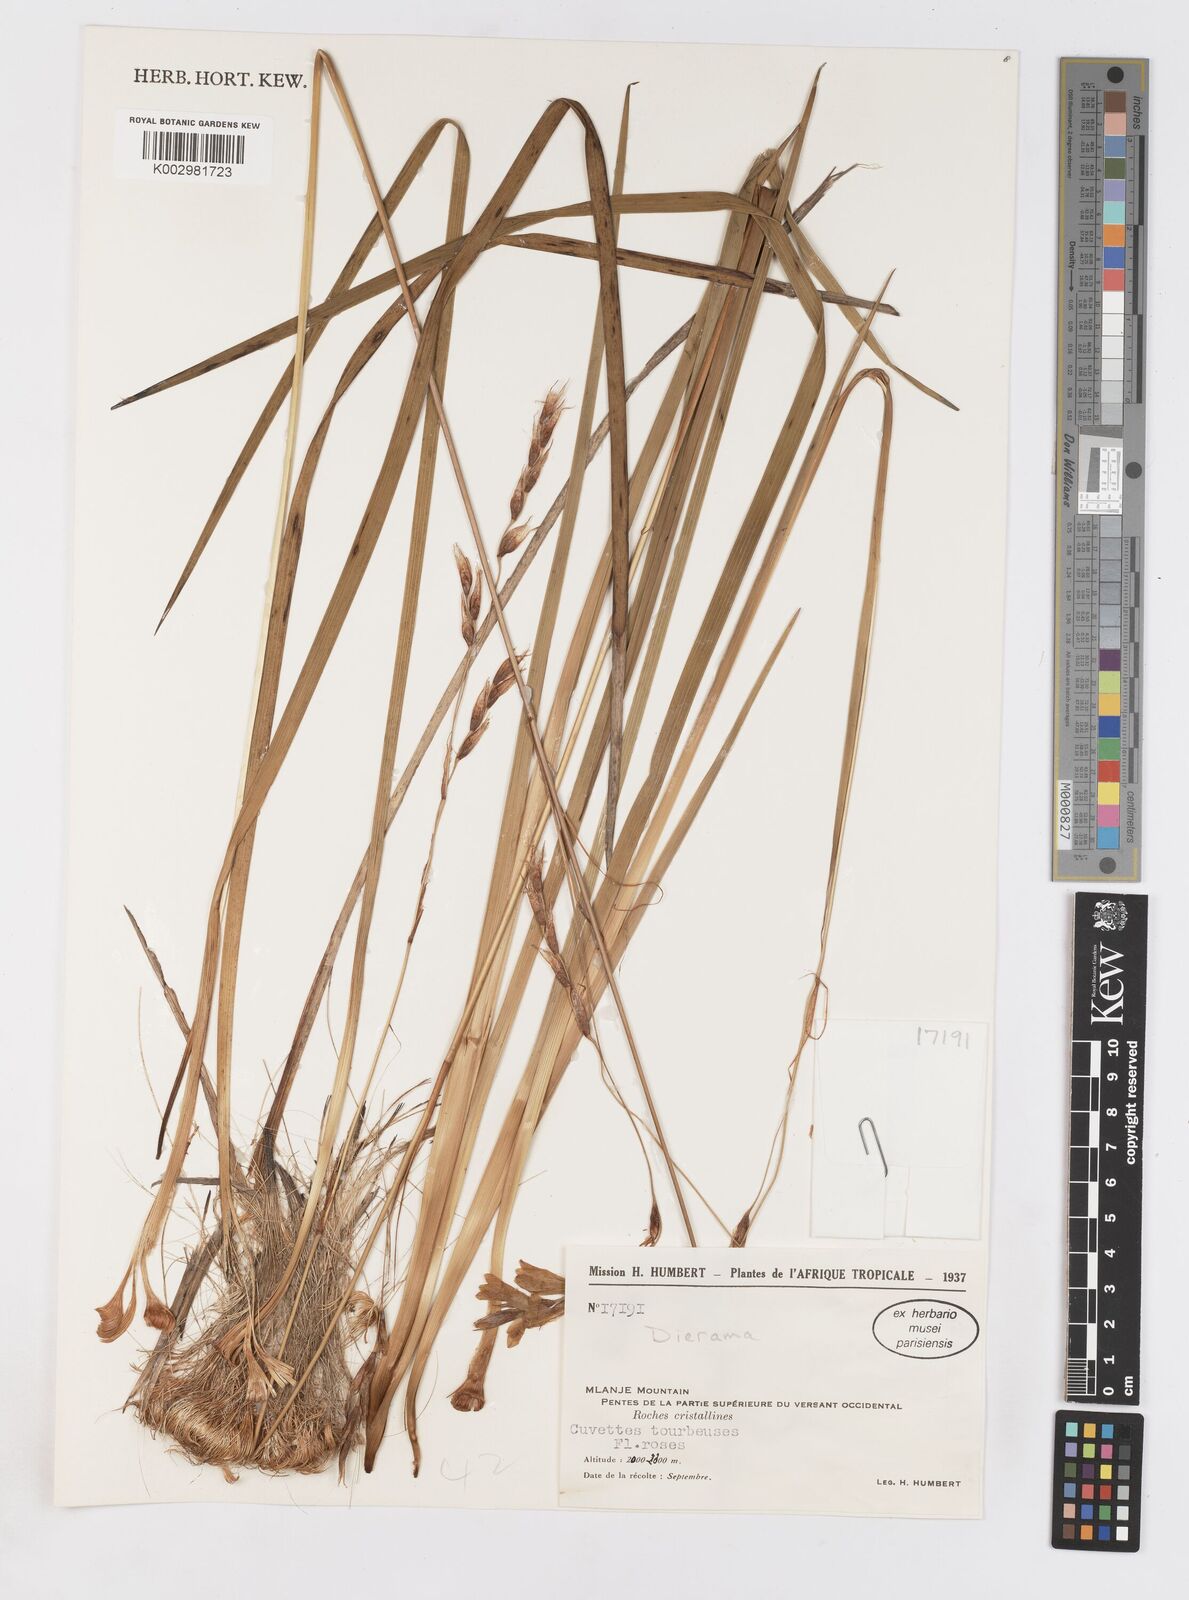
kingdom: Plantae
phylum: Tracheophyta
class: Liliopsida
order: Asparagales
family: Iridaceae
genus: Dierama
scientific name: Dierama
